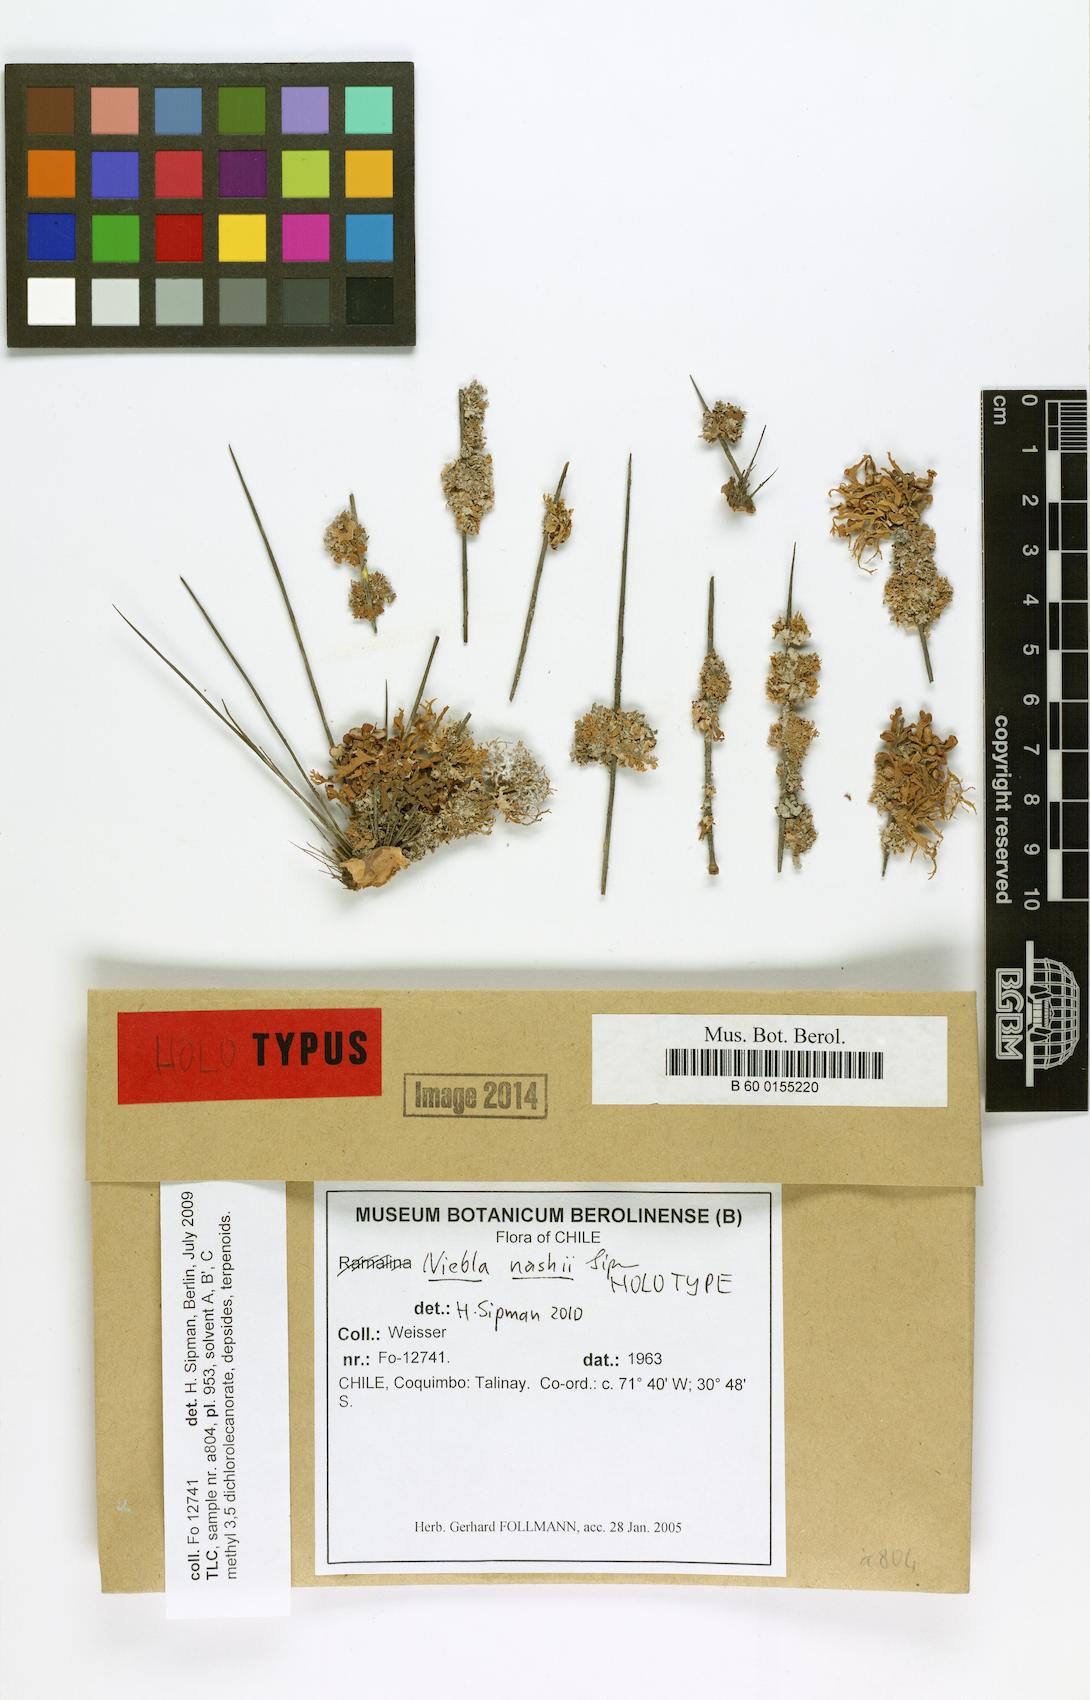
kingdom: Fungi
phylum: Ascomycota
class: Lecanoromycetes
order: Lecanorales
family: Ramalinaceae
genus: Niebla
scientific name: Niebla nashii
